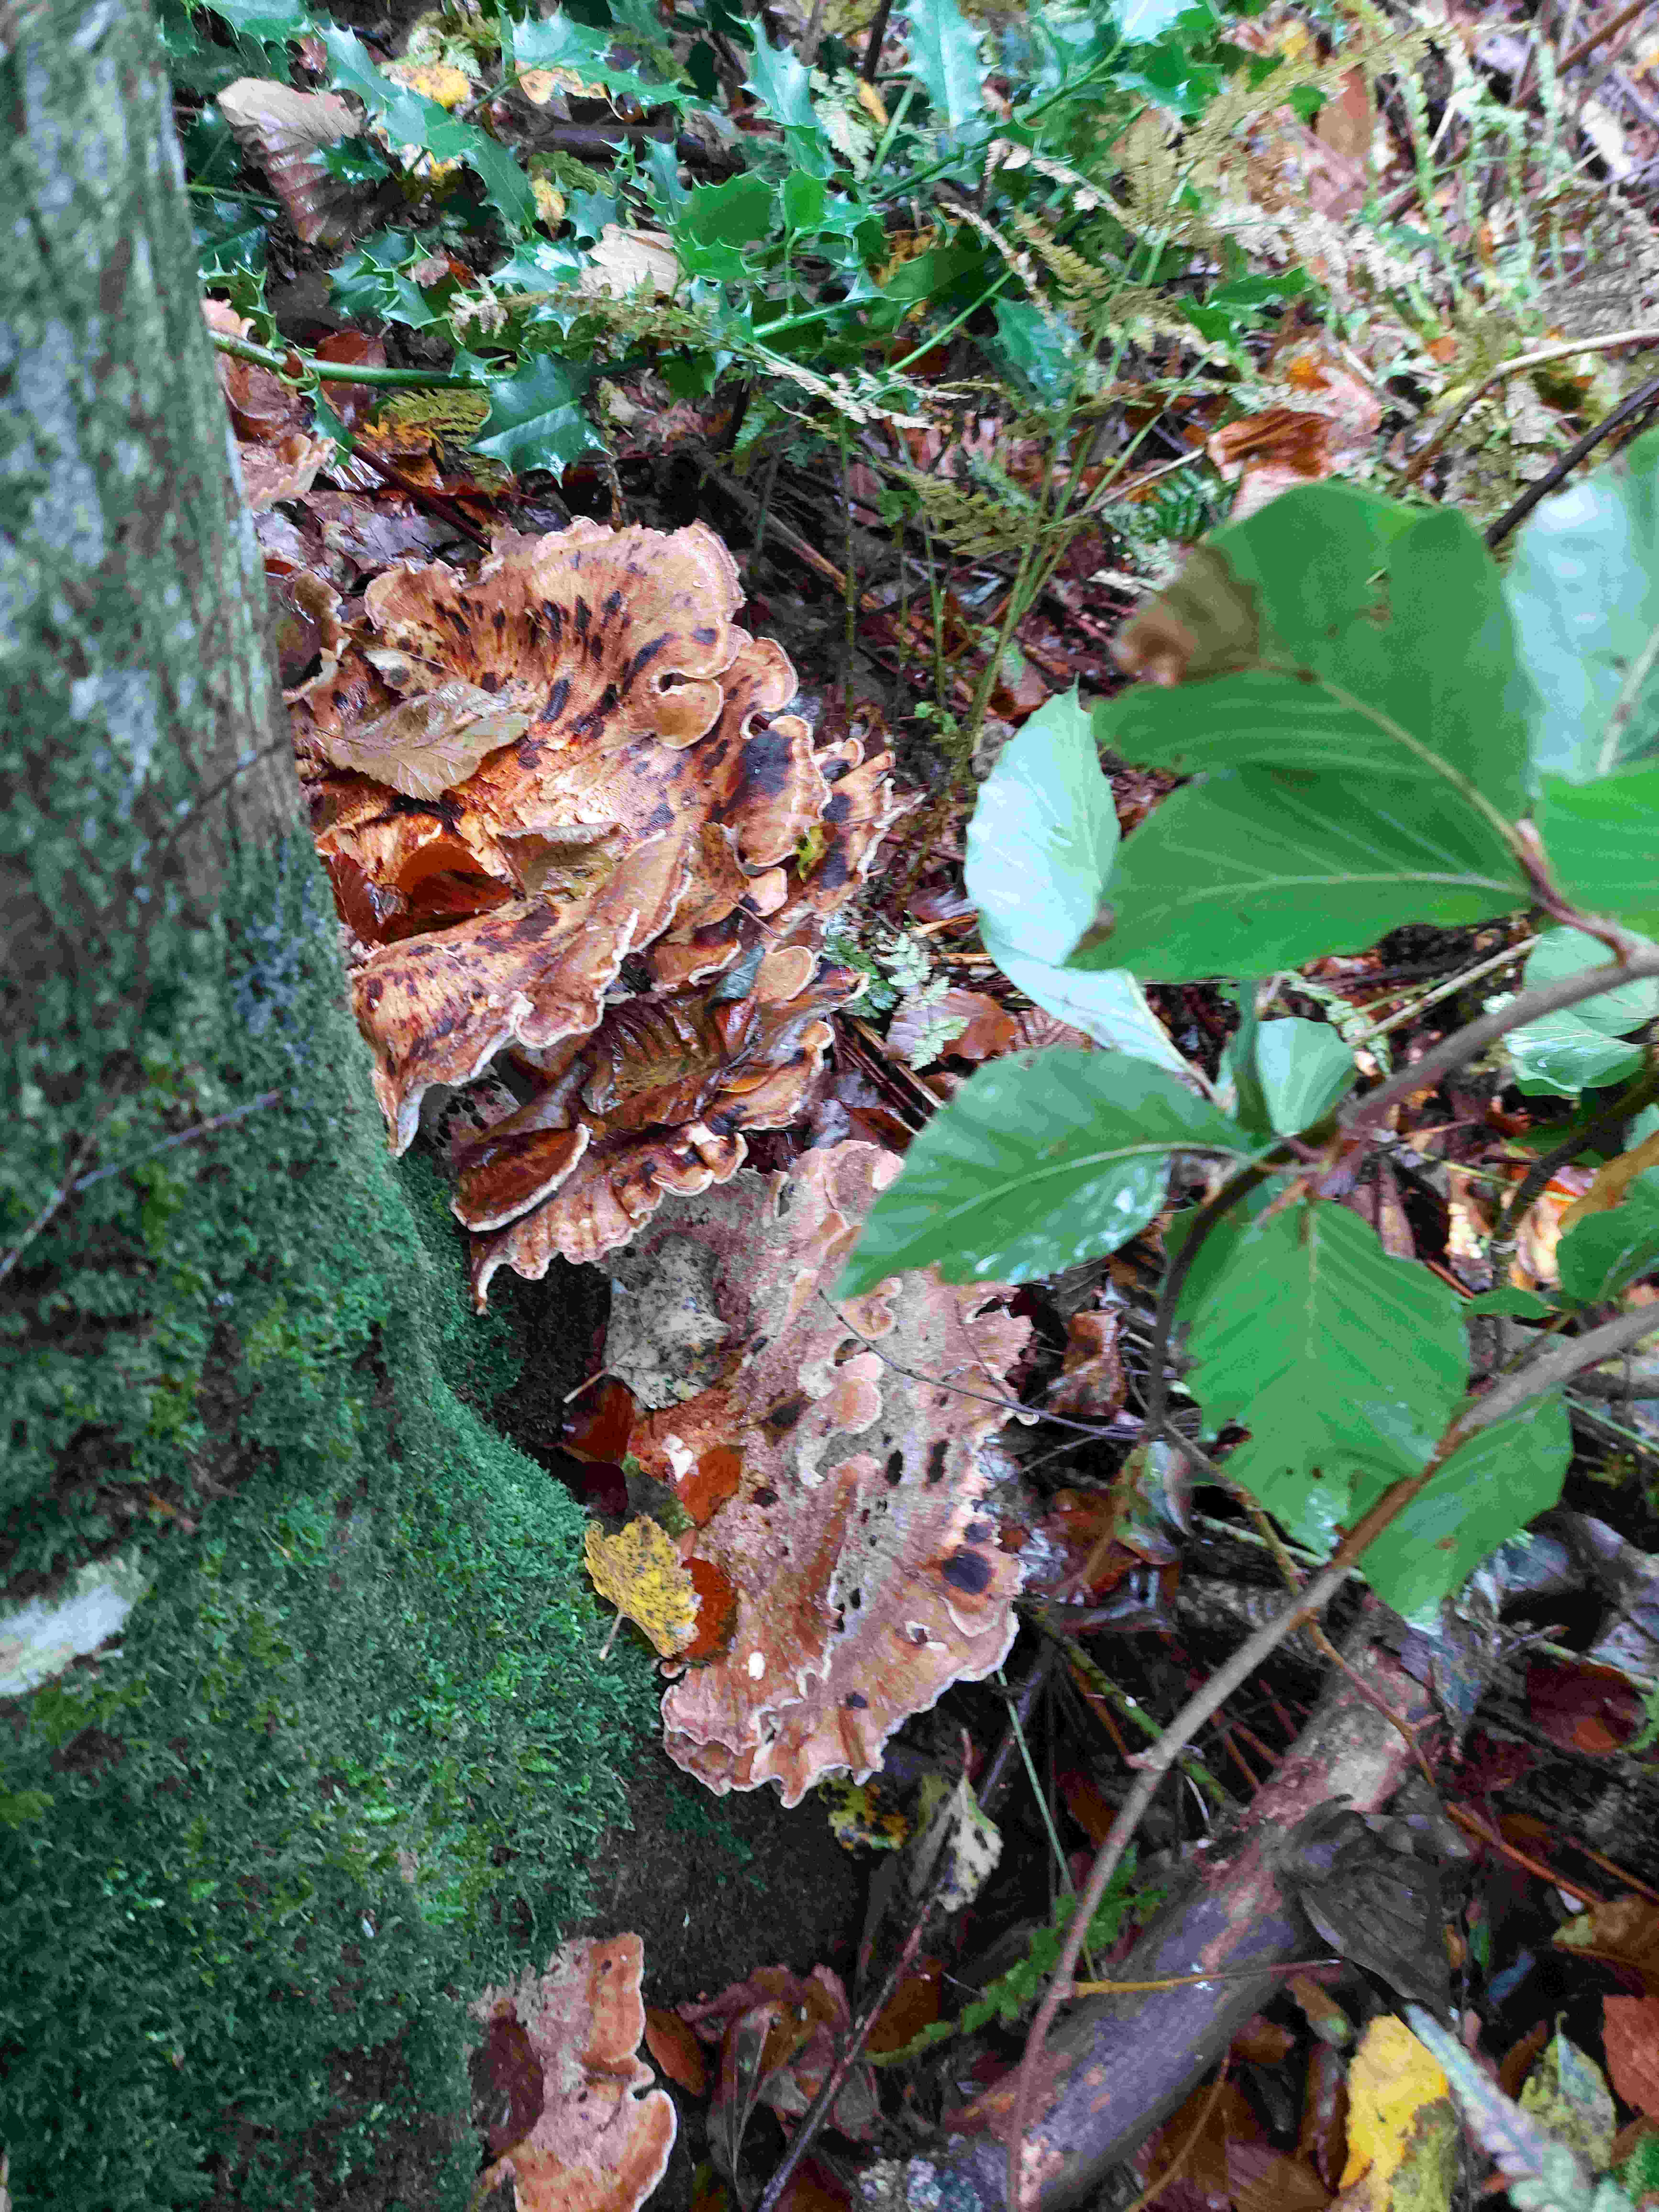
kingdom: Fungi
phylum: Basidiomycota
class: Agaricomycetes
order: Polyporales
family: Meripilaceae
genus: Meripilus
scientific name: Meripilus giganteus
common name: kæmpeporesvamp
